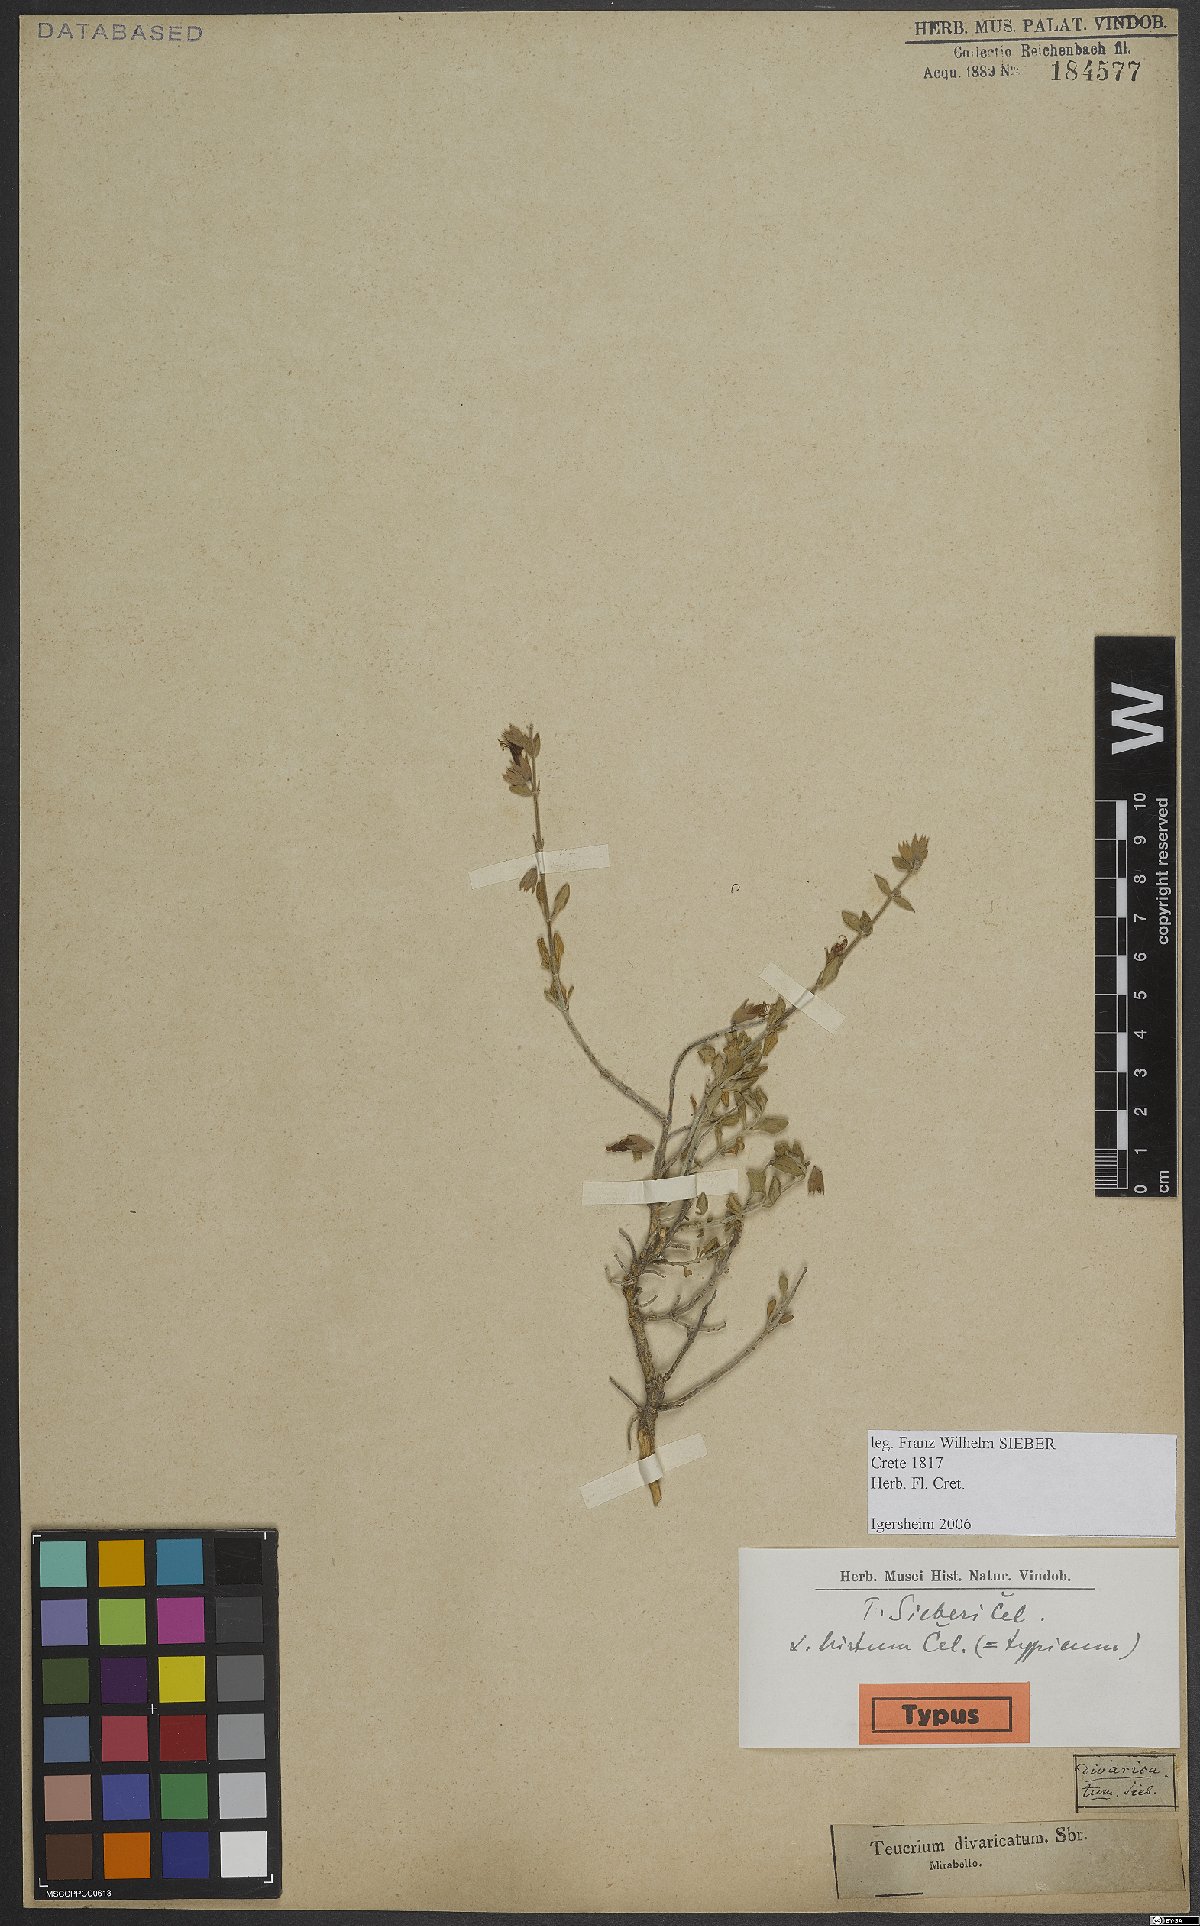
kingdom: Plantae
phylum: Tracheophyta
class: Magnoliopsida
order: Lamiales
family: Lamiaceae
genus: Teucrium
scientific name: Teucrium divaricatum
